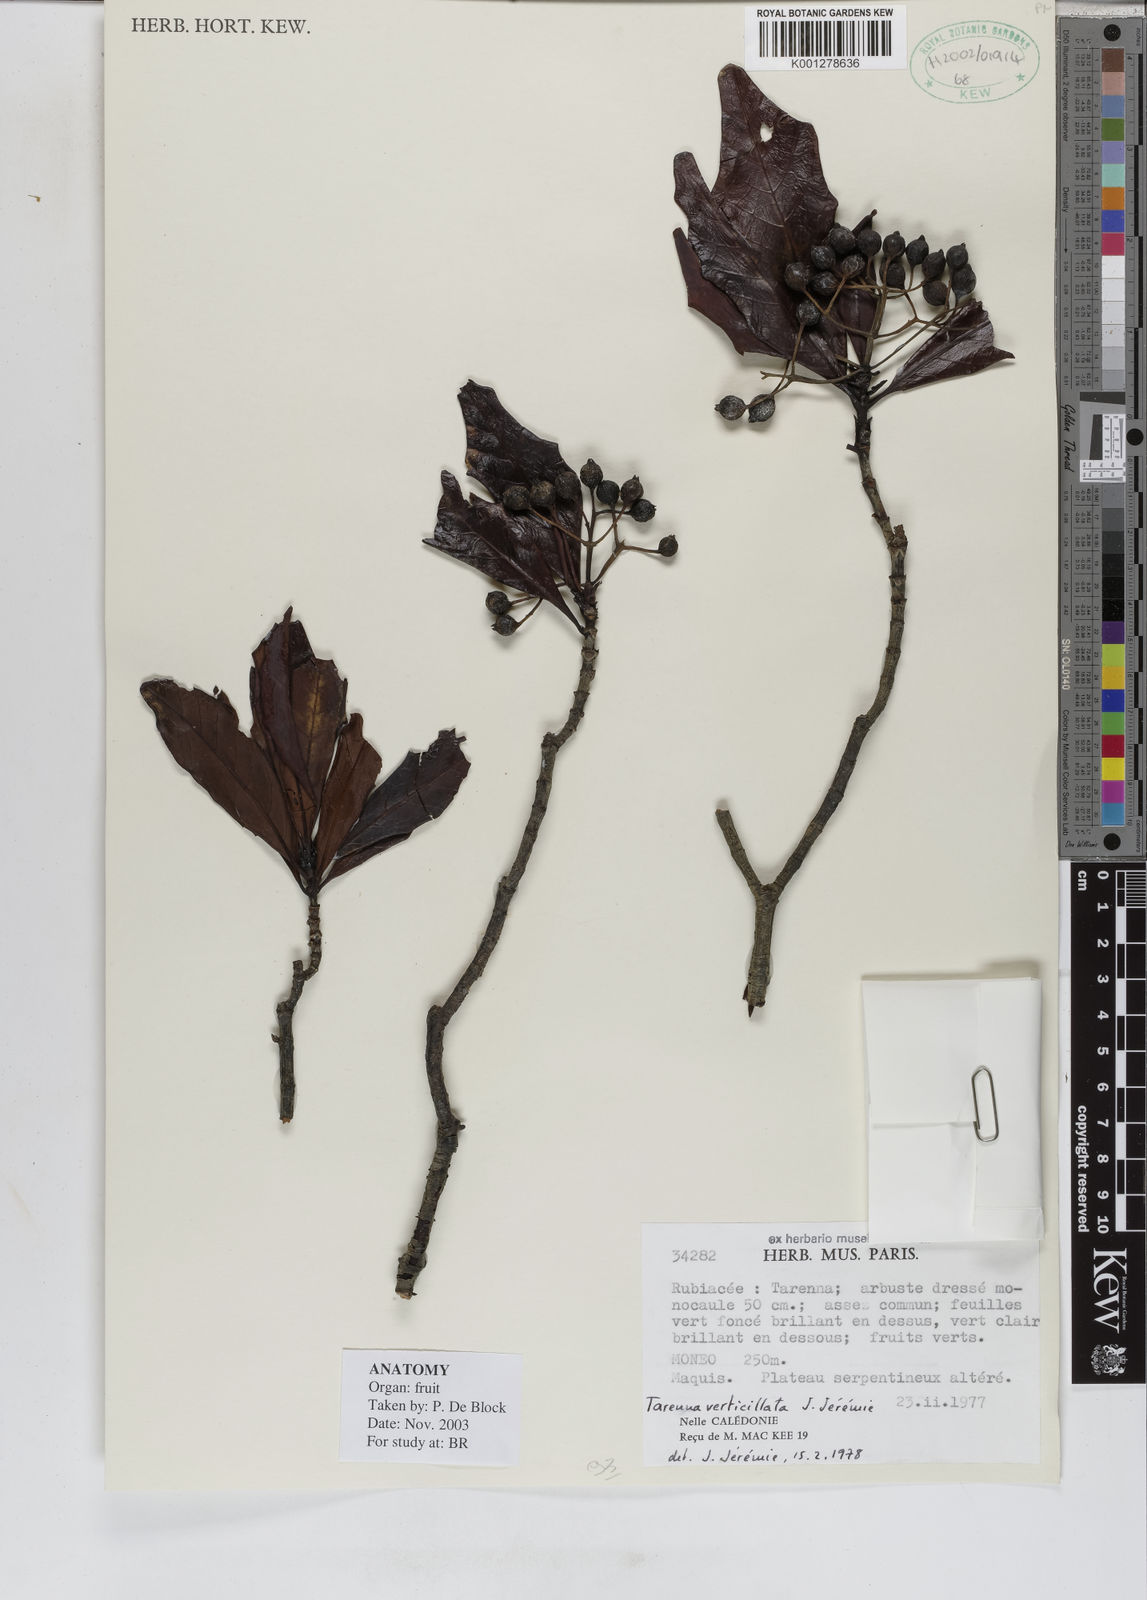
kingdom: Plantae
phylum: Tracheophyta
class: Magnoliopsida
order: Gentianales
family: Rubiaceae
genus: Tarenna
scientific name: Tarenna
